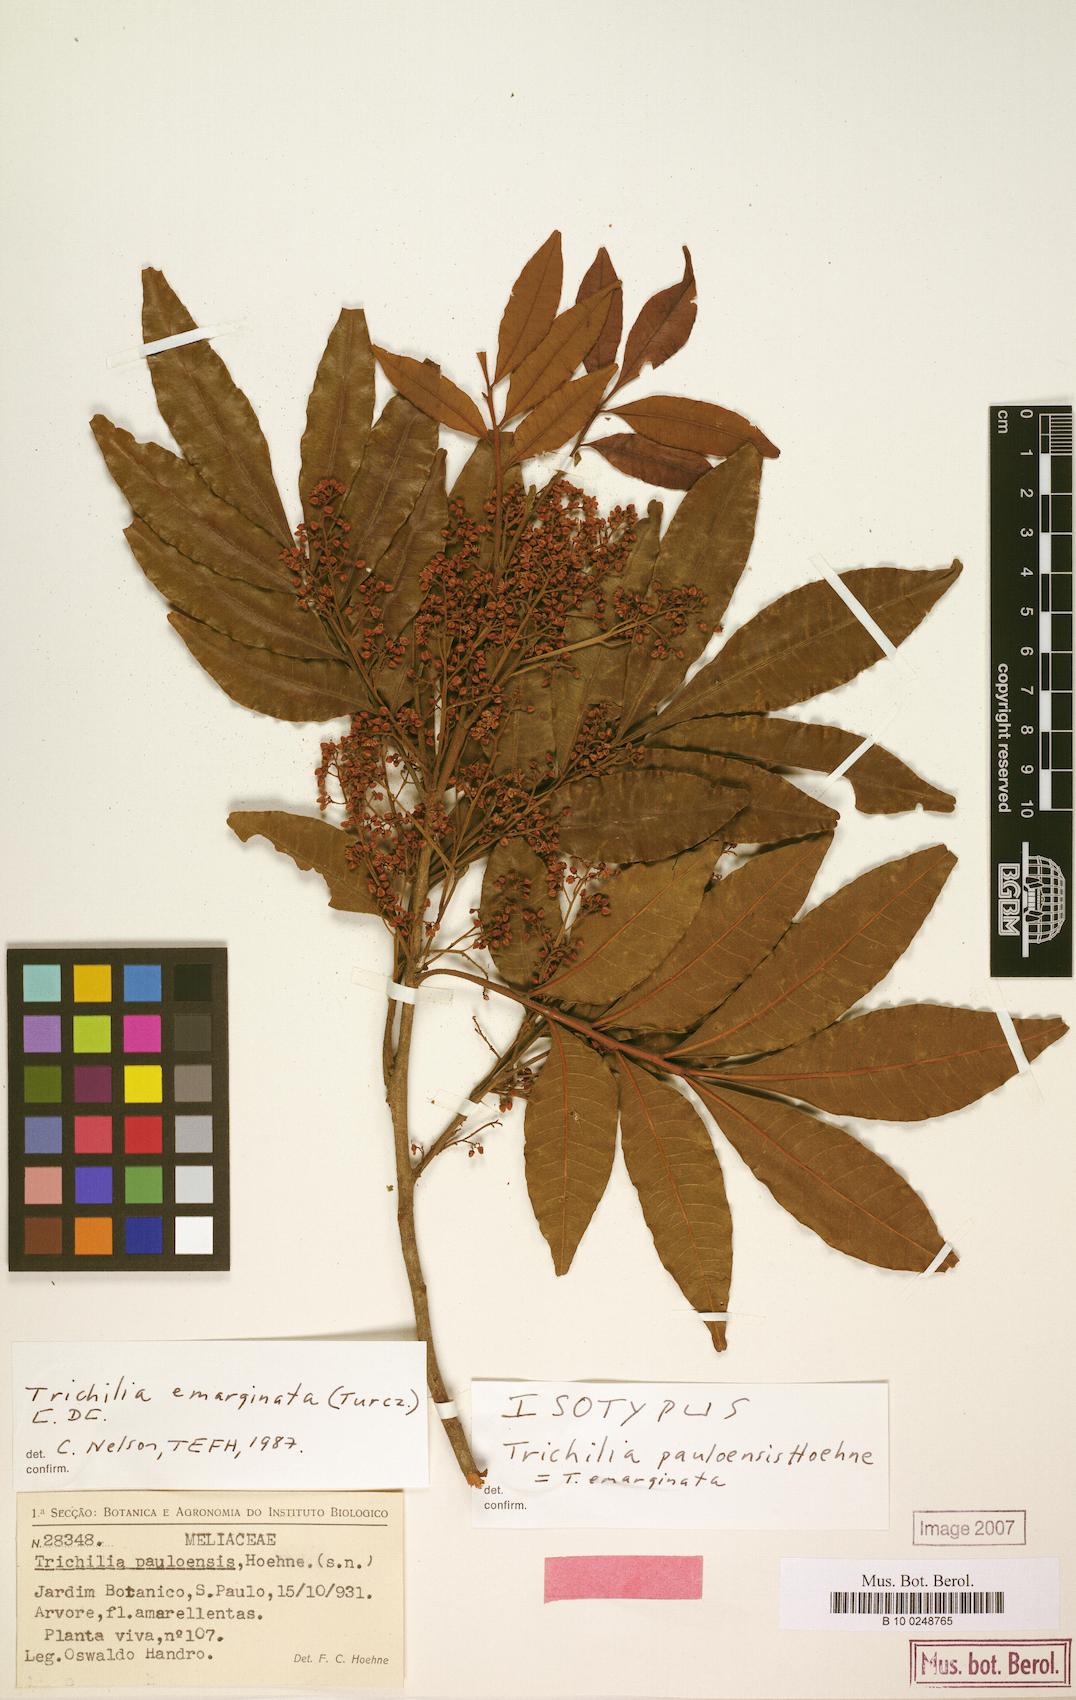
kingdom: Plantae
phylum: Tracheophyta
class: Magnoliopsida
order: Sapindales
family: Meliaceae
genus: Trichilia
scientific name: Trichilia emarginata
